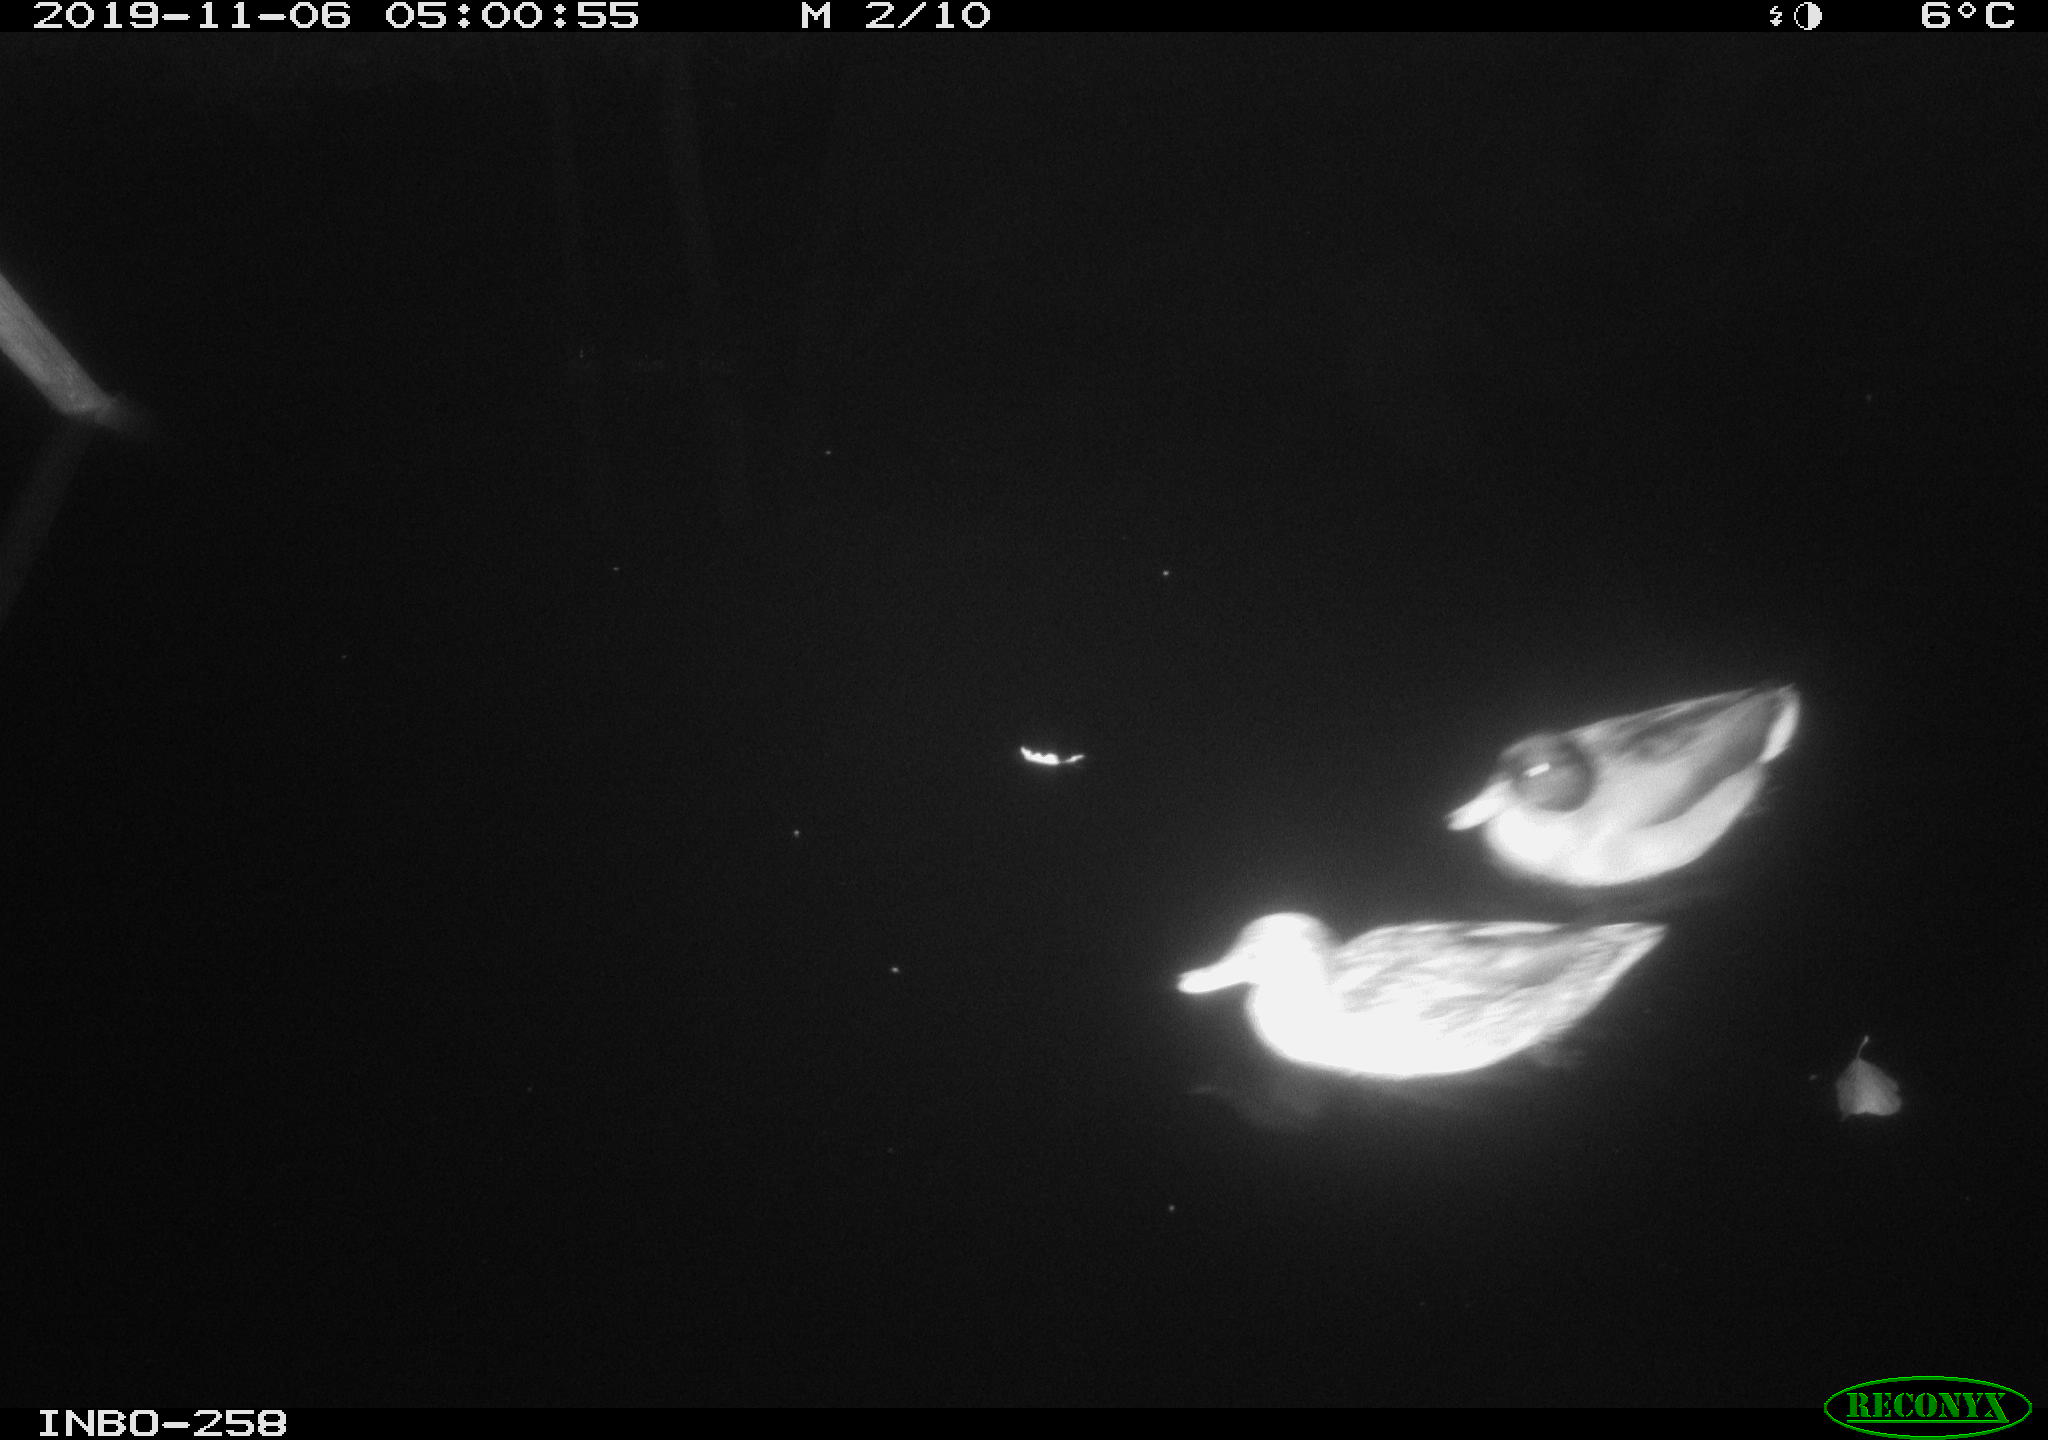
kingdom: Animalia
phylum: Chordata
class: Aves
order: Anseriformes
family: Anatidae
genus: Anas
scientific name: Anas platyrhynchos
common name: Mallard
